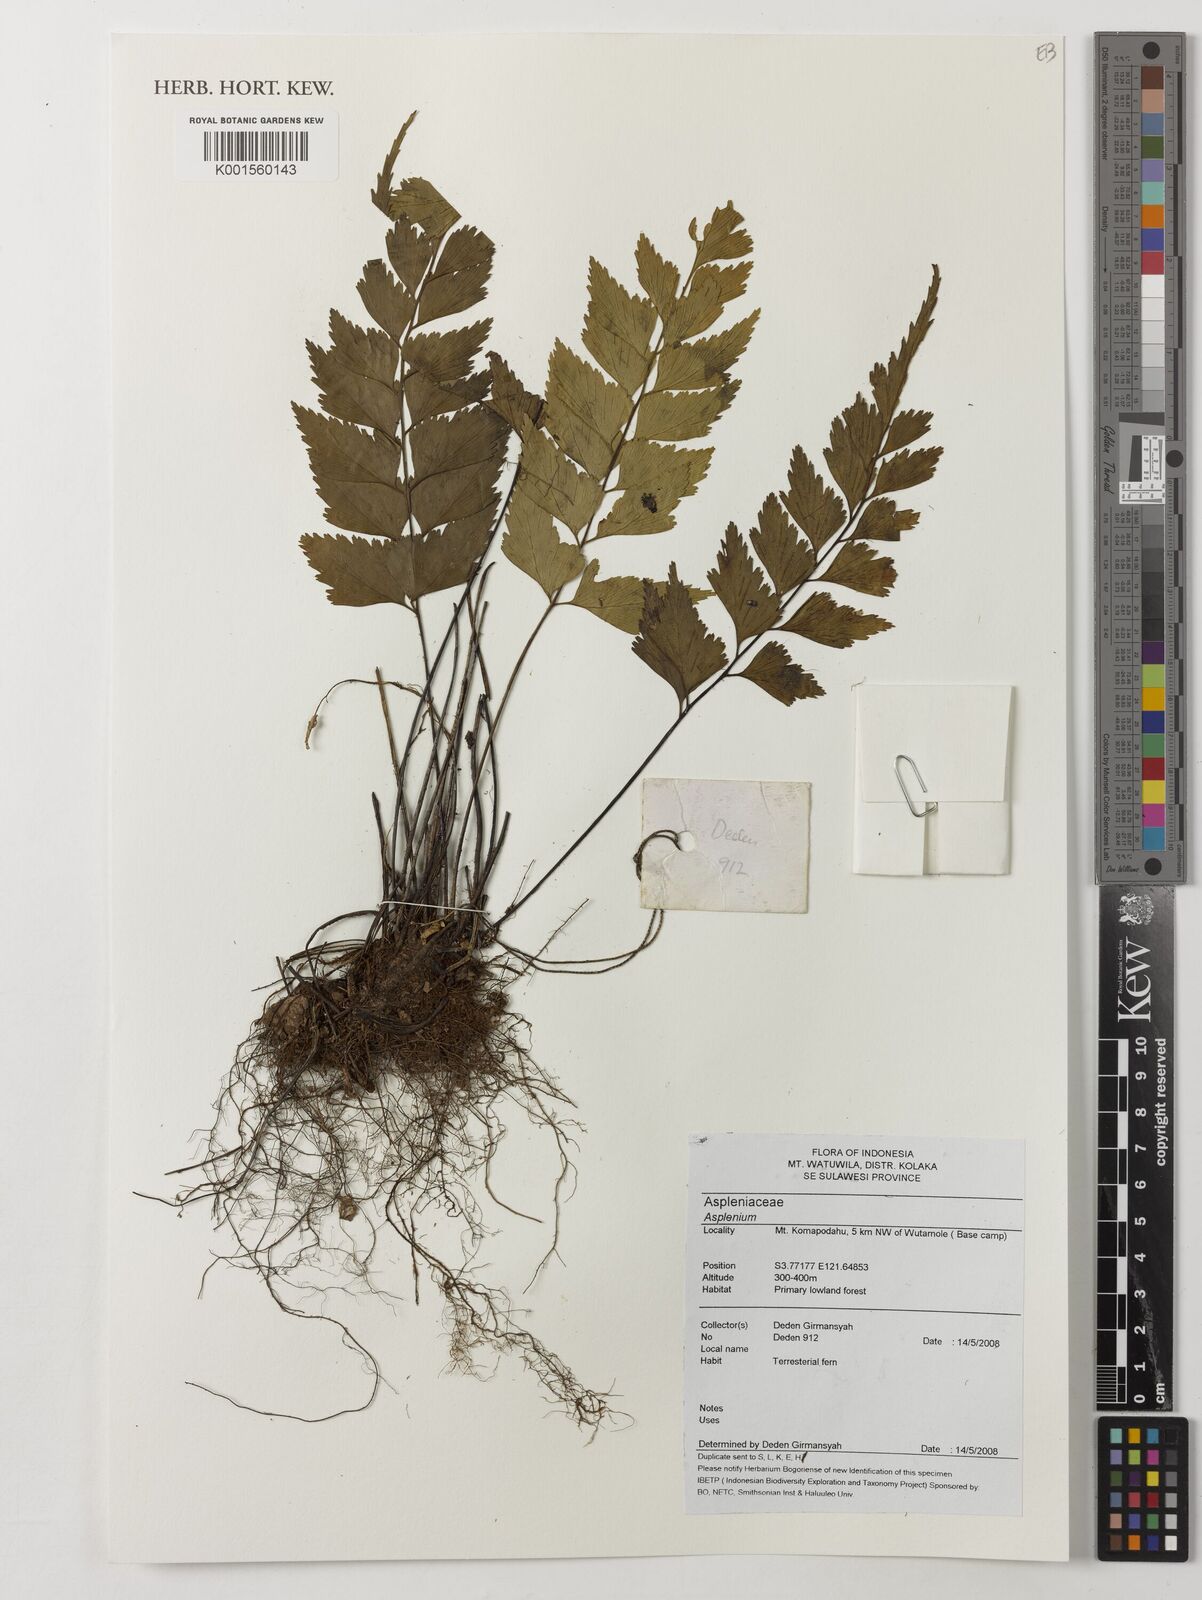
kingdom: Plantae
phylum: Tracheophyta
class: Polypodiopsida
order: Polypodiales
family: Aspleniaceae
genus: Asplenium
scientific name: Asplenium
